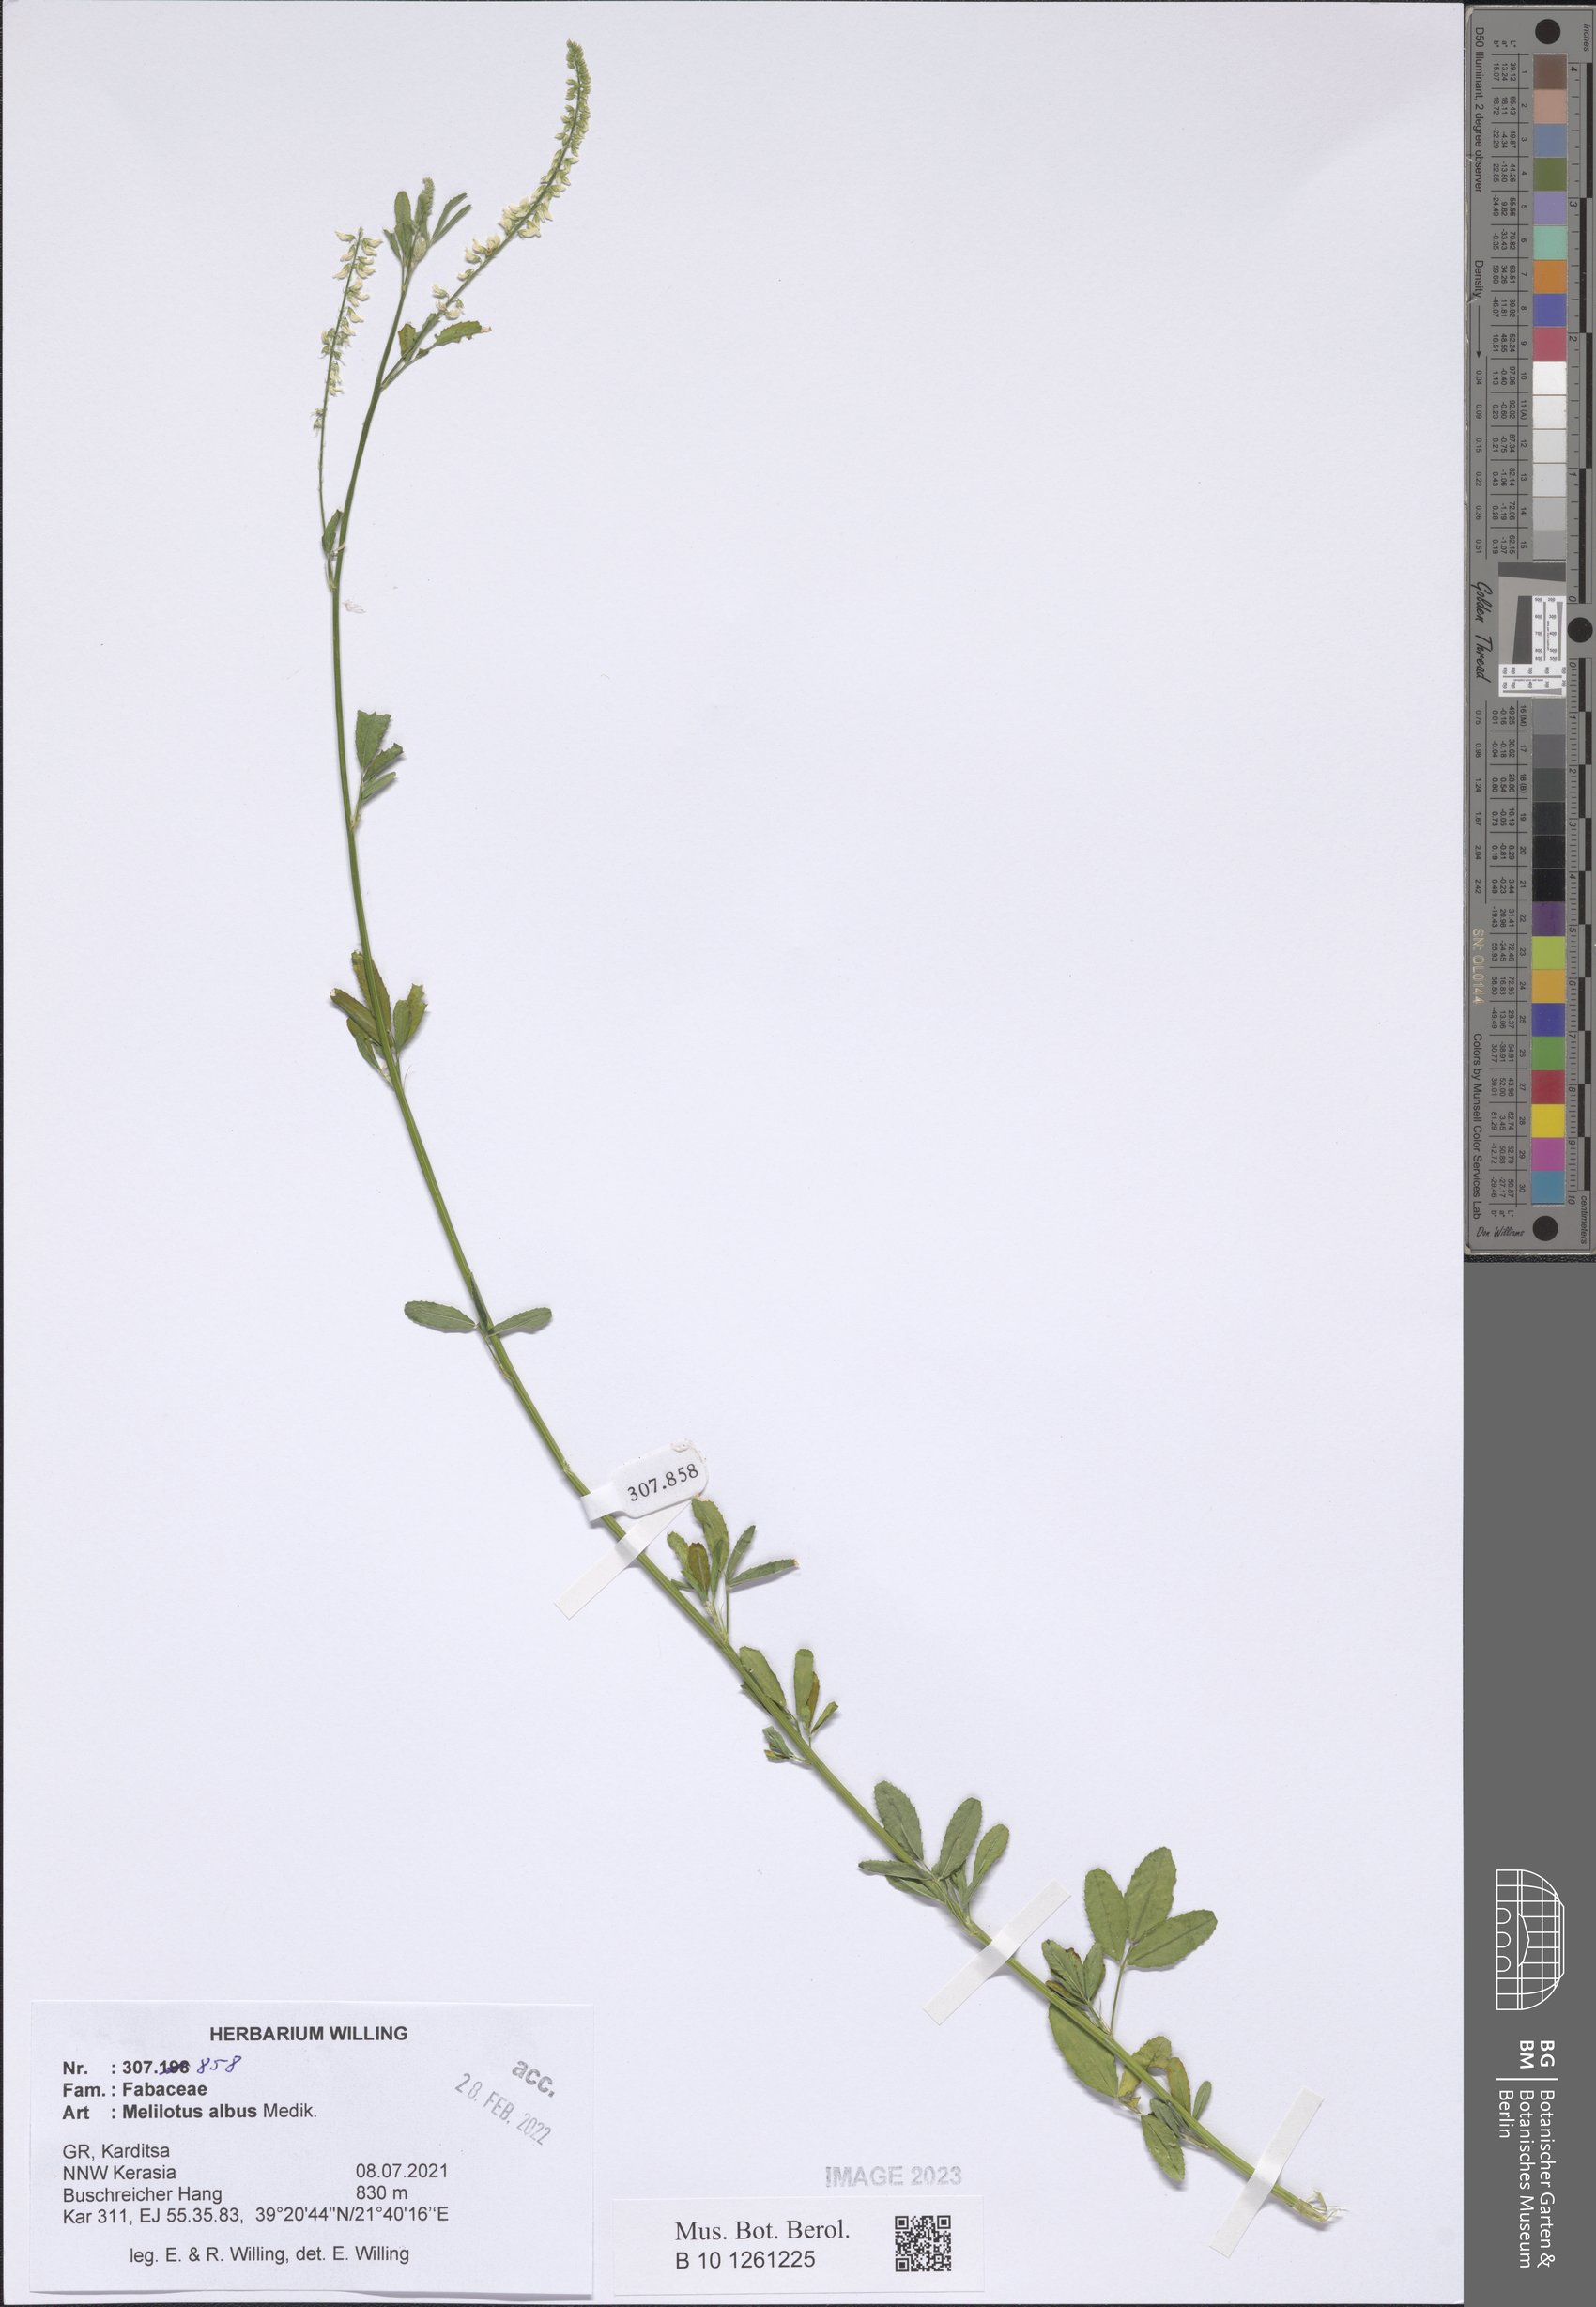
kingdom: Plantae
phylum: Tracheophyta
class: Magnoliopsida
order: Fabales
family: Fabaceae
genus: Melilotus
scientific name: Melilotus albus
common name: White melilot
